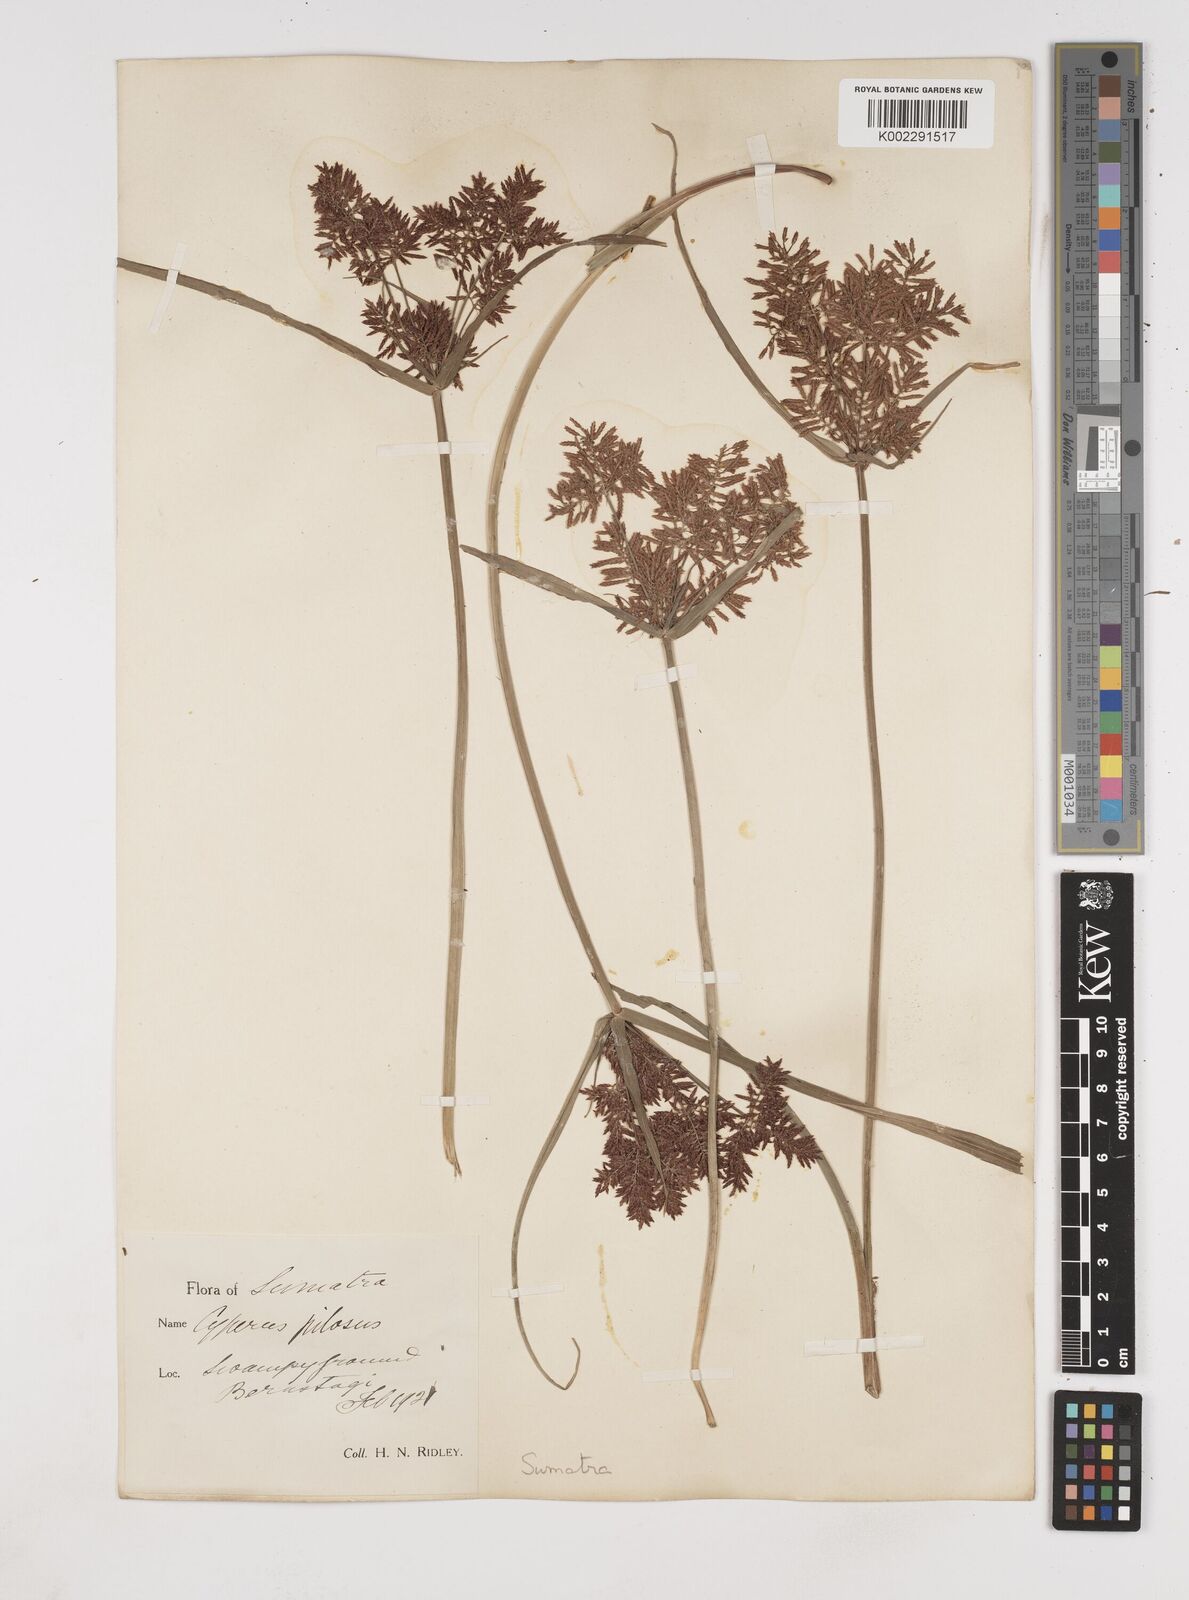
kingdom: Plantae
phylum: Tracheophyta
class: Liliopsida
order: Poales
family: Cyperaceae
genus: Cyperus
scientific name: Cyperus pilosus
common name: Fuzzy flatsedge
